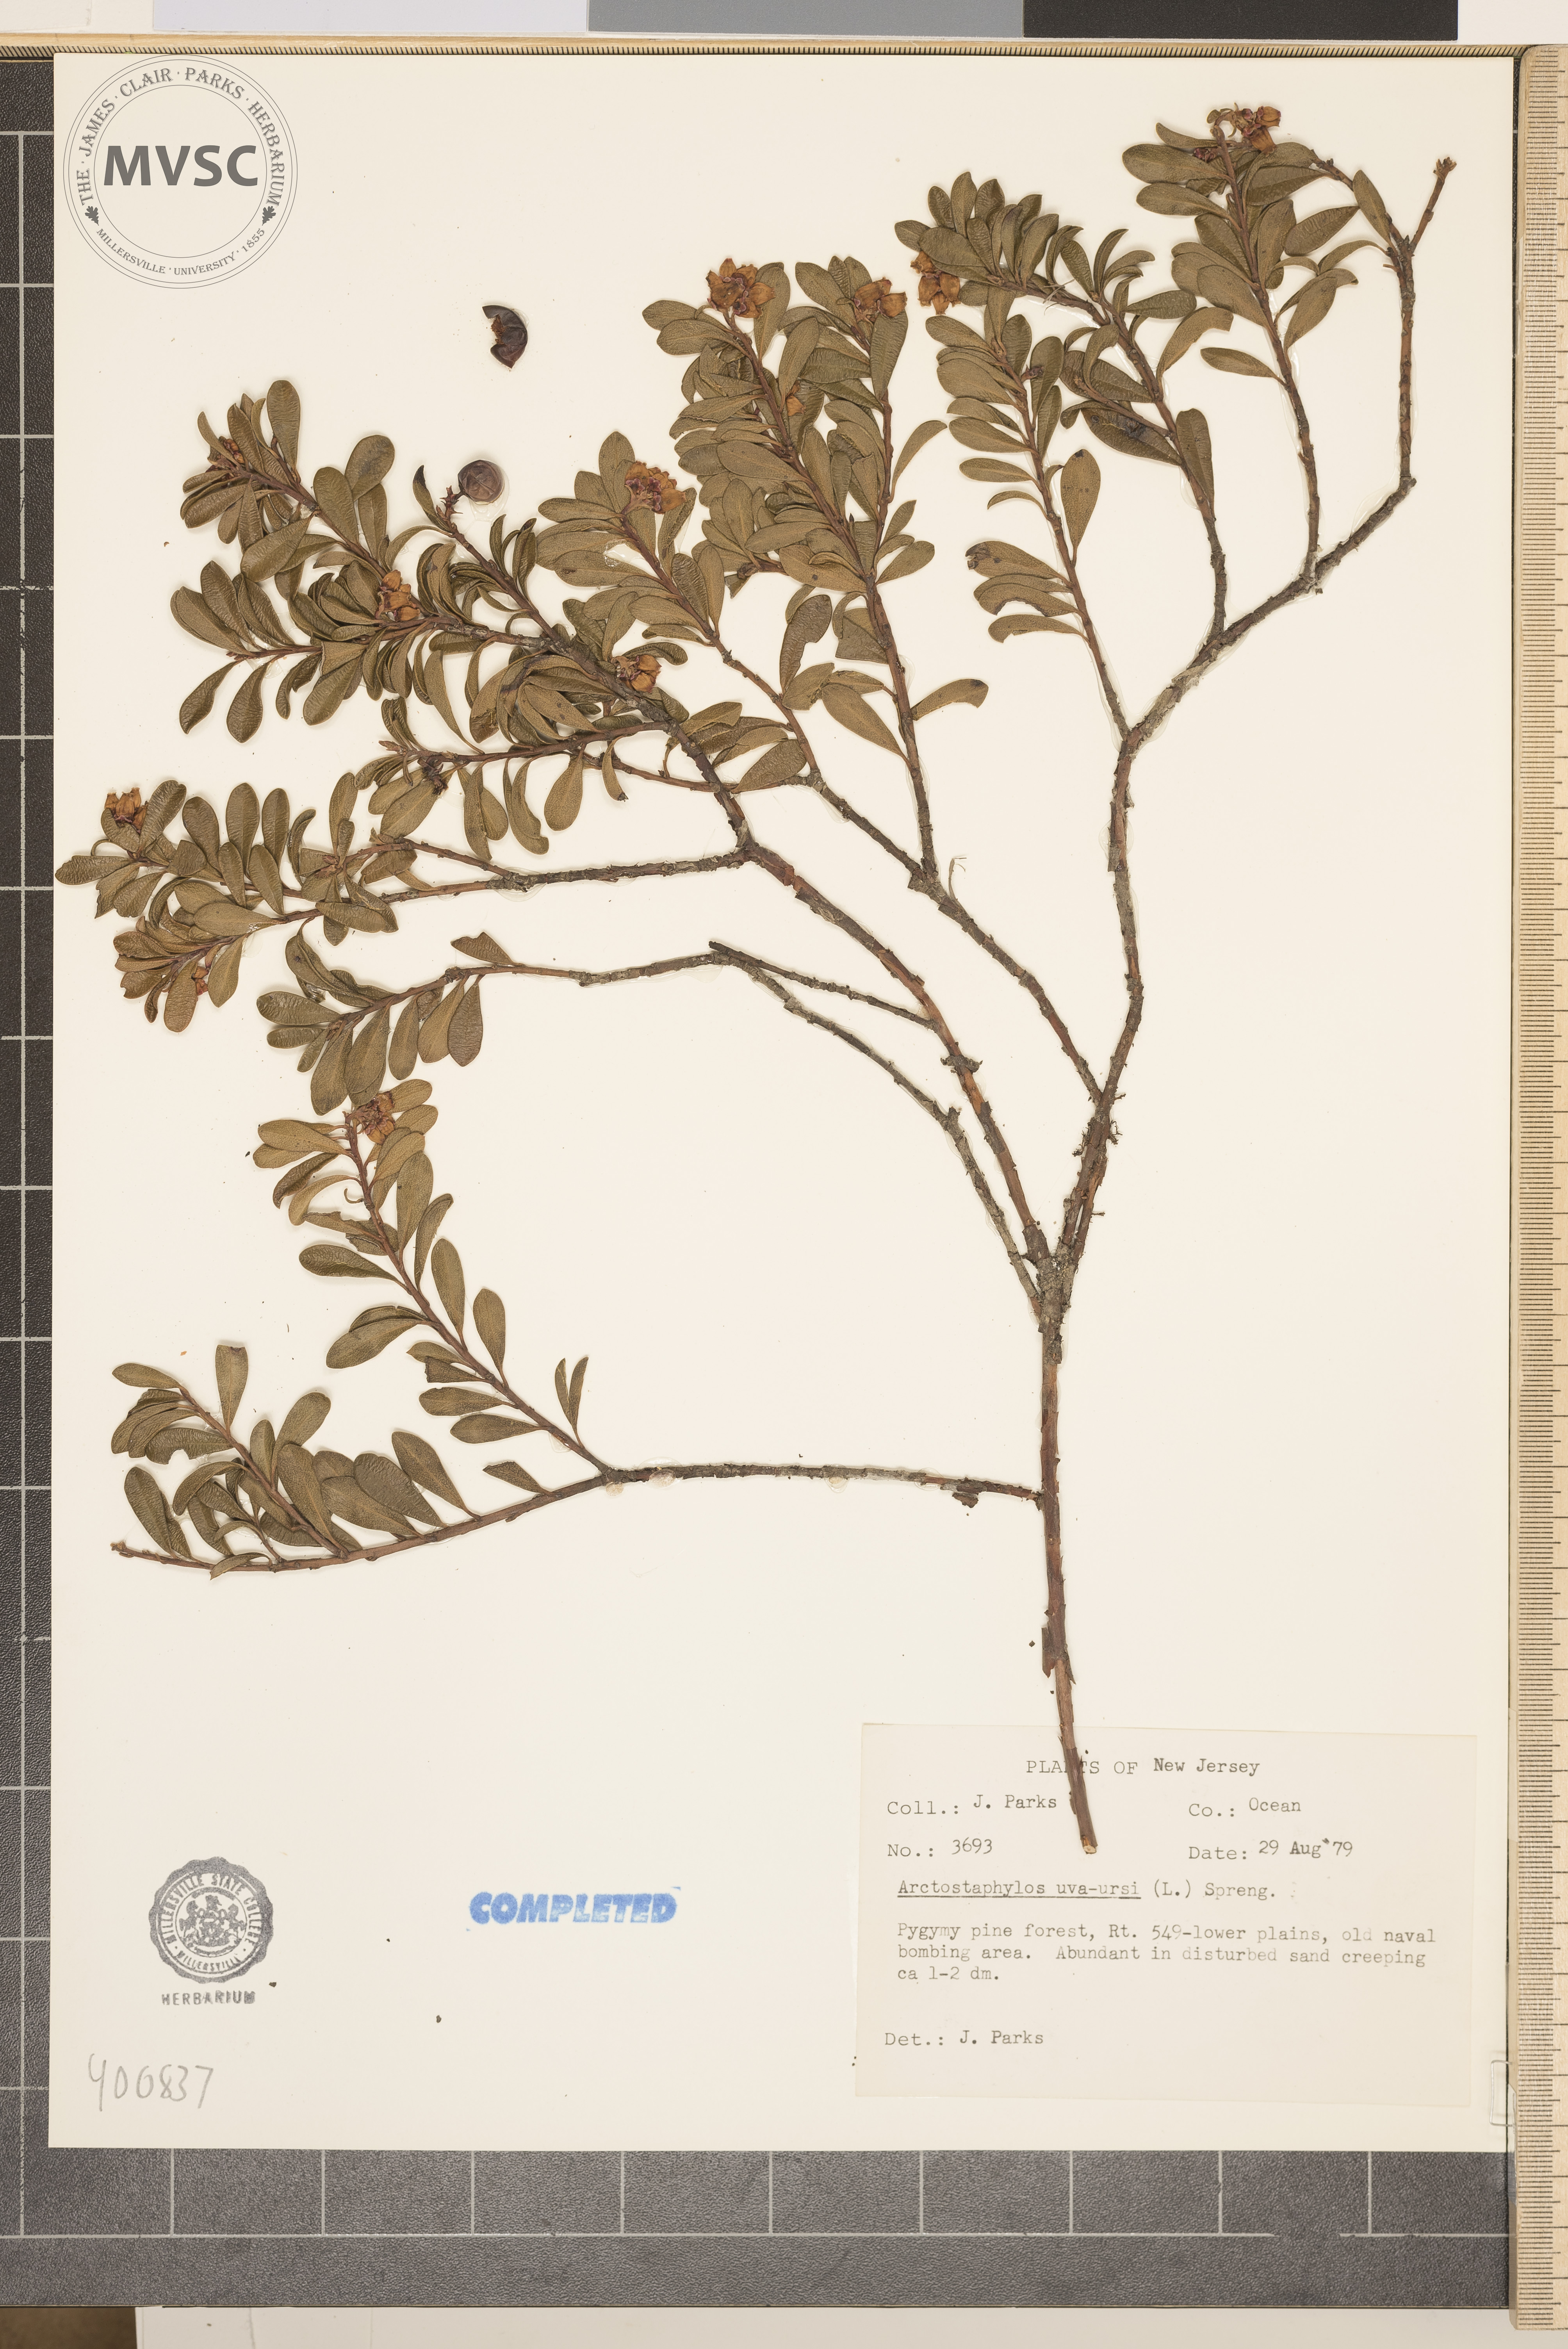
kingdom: Plantae
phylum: Tracheophyta
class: Magnoliopsida
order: Ericales
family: Ericaceae
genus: Arctostaphylos
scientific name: Arctostaphylos uva-ursi
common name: Bearberry
